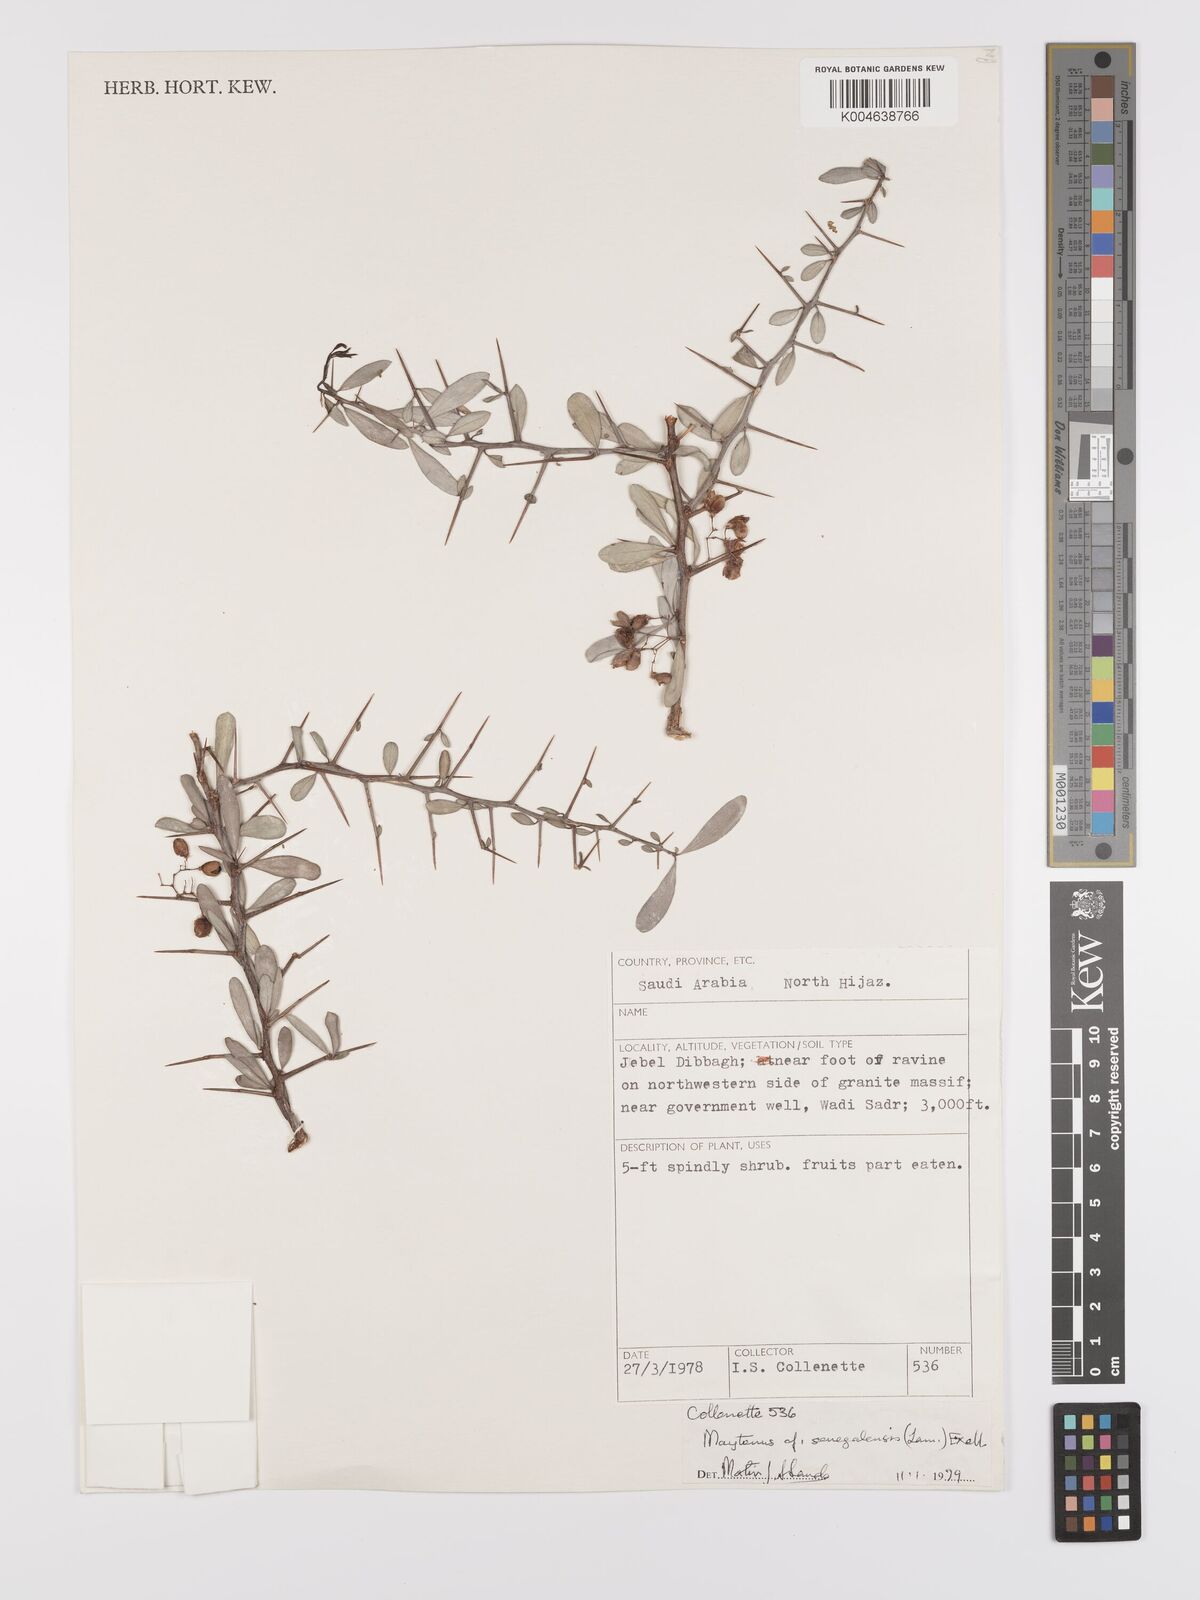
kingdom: Plantae
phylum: Tracheophyta
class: Magnoliopsida
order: Celastrales
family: Celastraceae
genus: Gymnosporia
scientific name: Gymnosporia senegalensis
